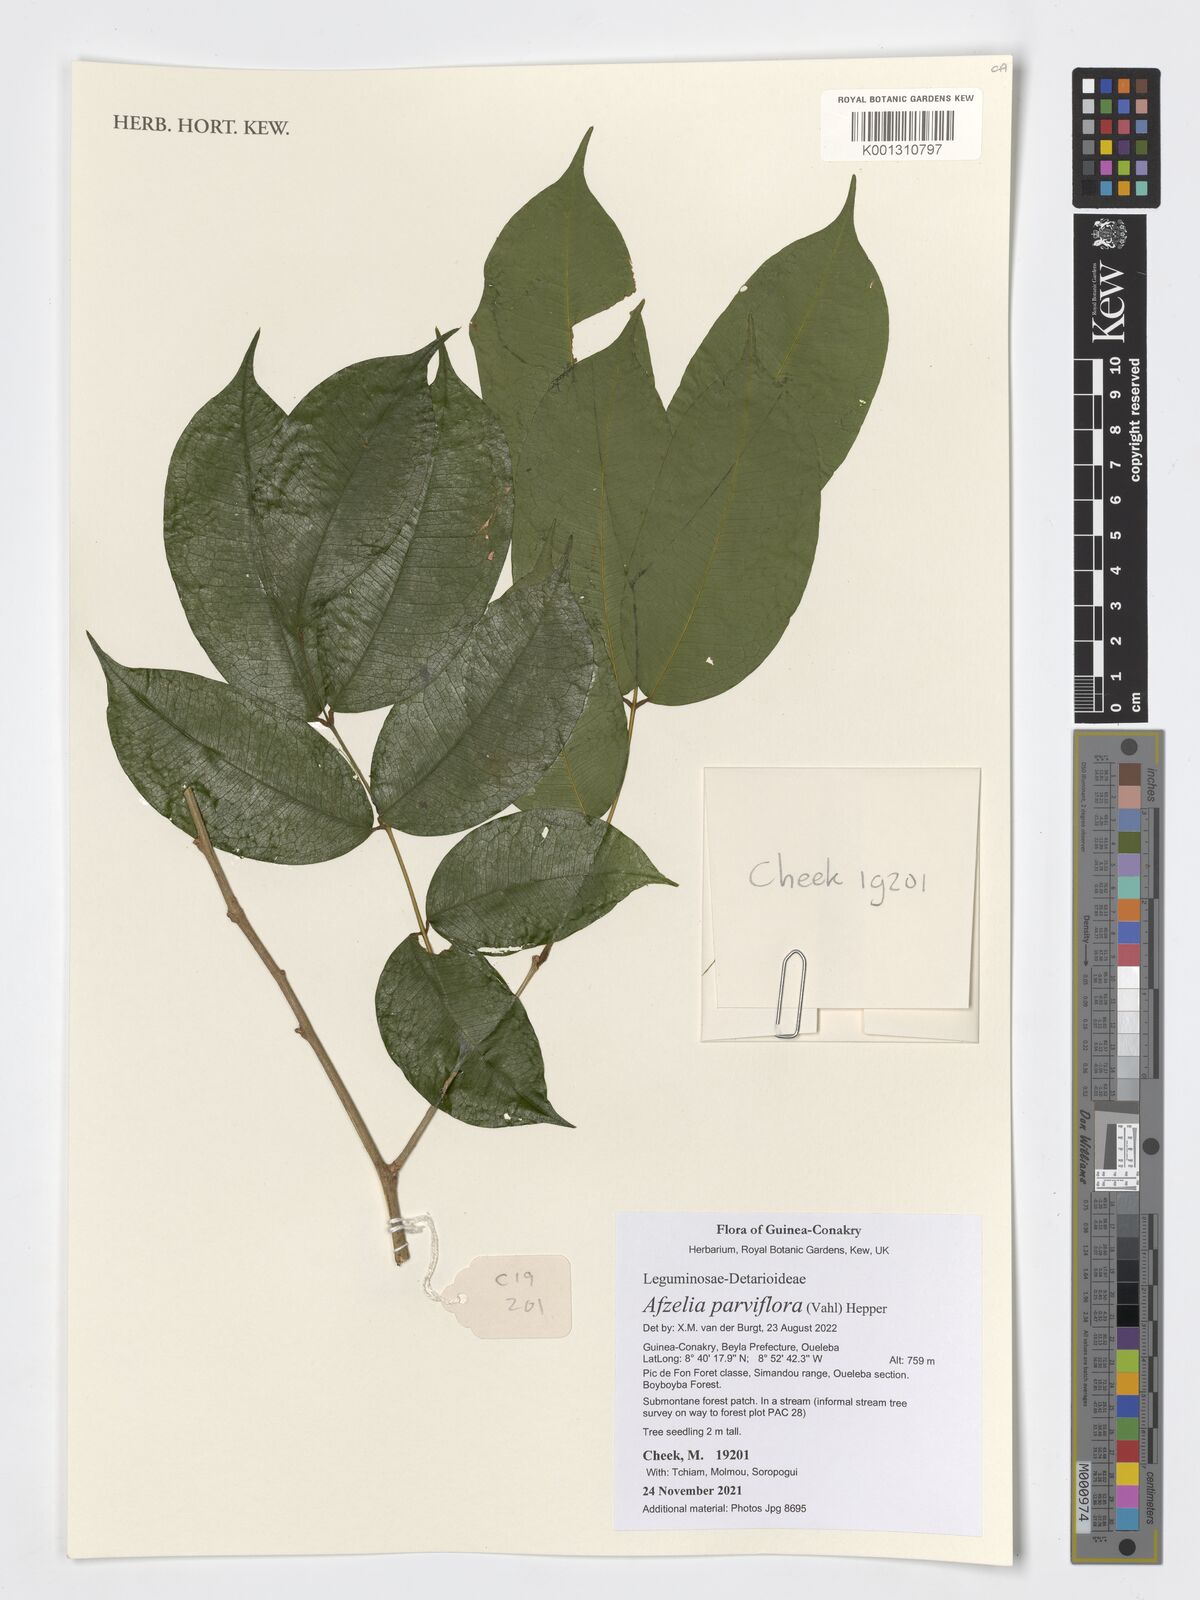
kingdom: Plantae
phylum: Tracheophyta
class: Magnoliopsida
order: Fabales
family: Fabaceae
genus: Afzelia
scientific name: Afzelia parviflora
